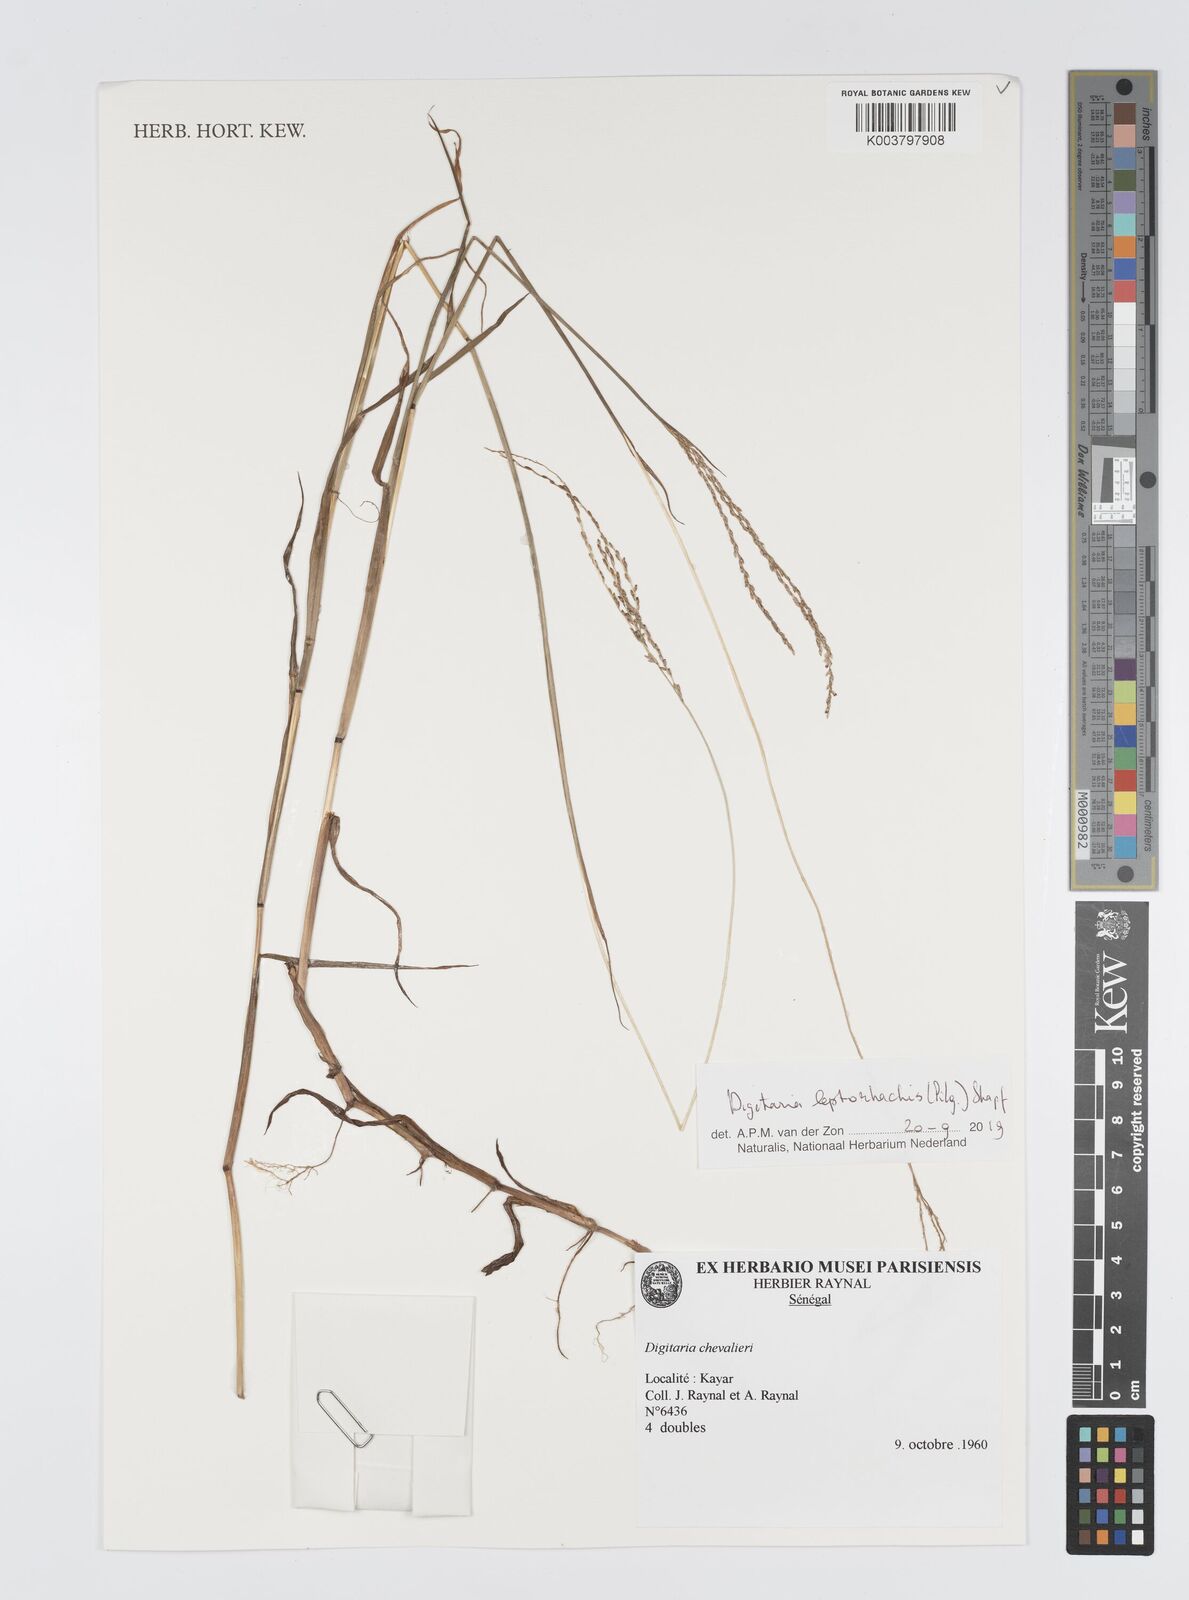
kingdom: Plantae
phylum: Tracheophyta
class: Liliopsida
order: Poales
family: Poaceae
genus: Digitaria
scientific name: Digitaria leptorhachis
